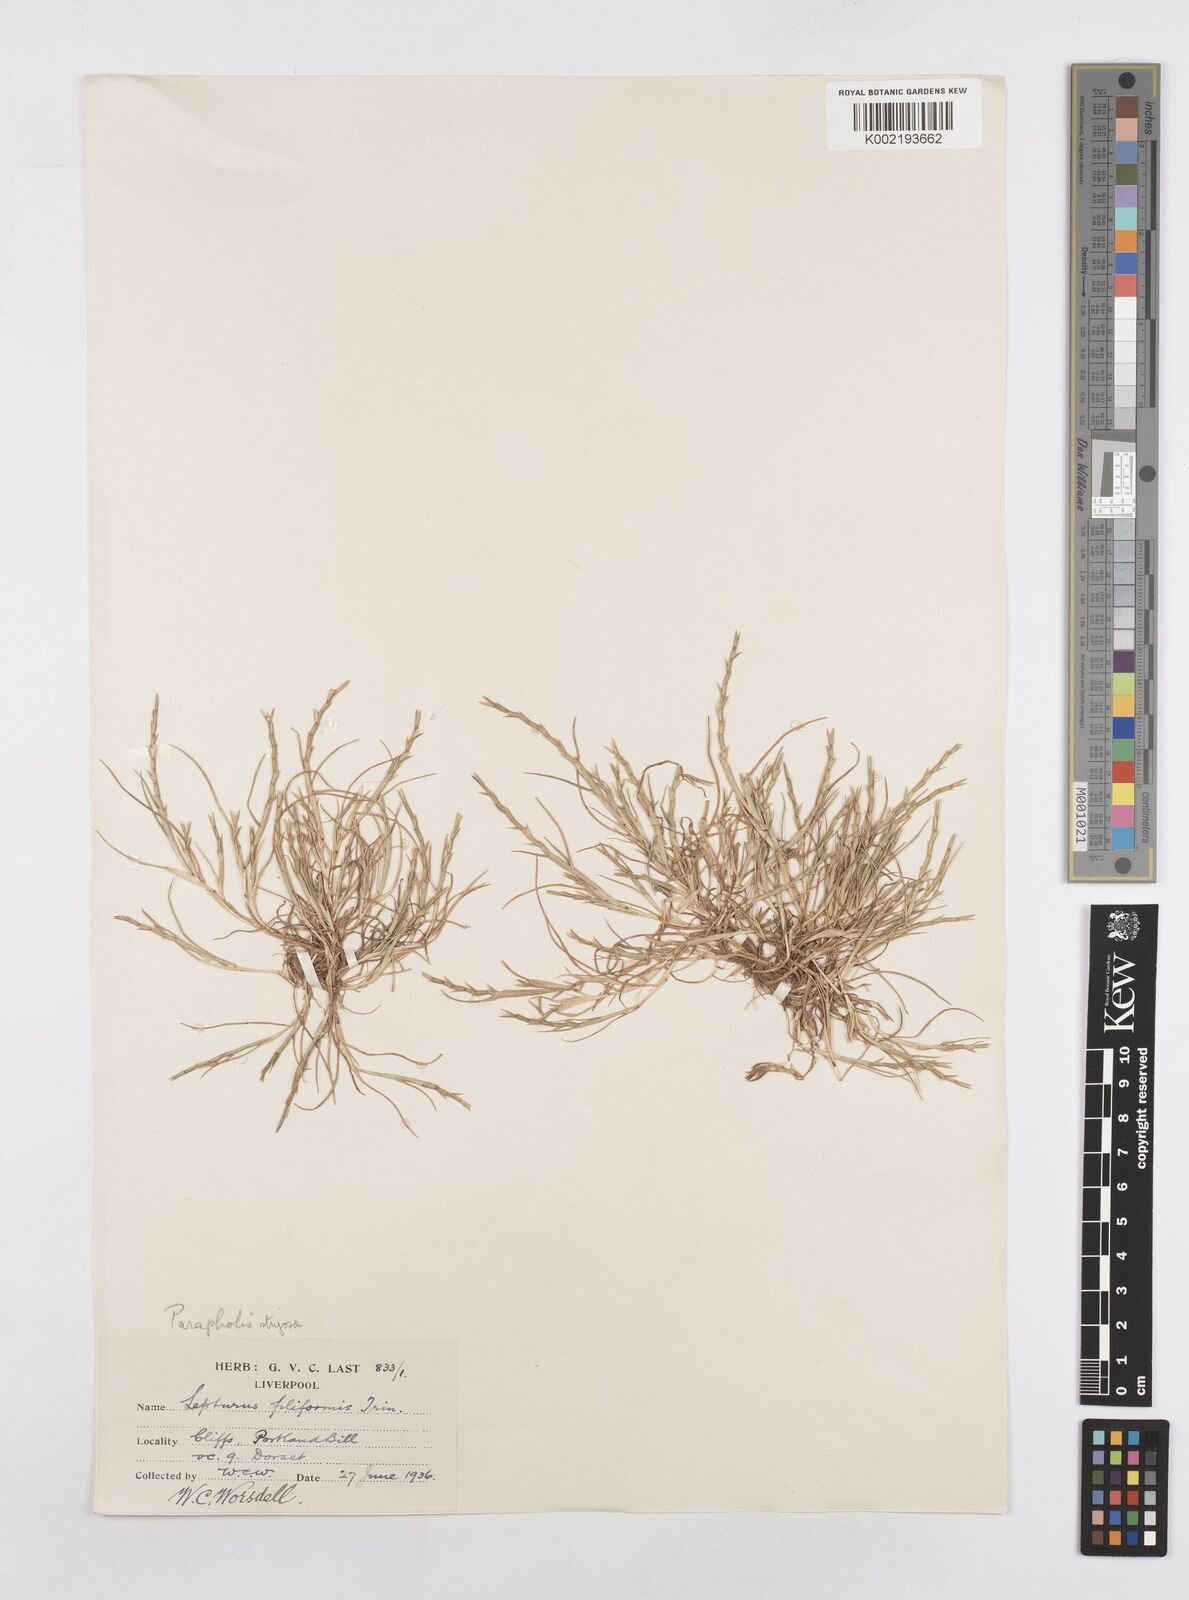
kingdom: Plantae
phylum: Tracheophyta
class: Liliopsida
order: Poales
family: Poaceae
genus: Parapholis
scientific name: Parapholis strigosa
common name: Hard-grass
